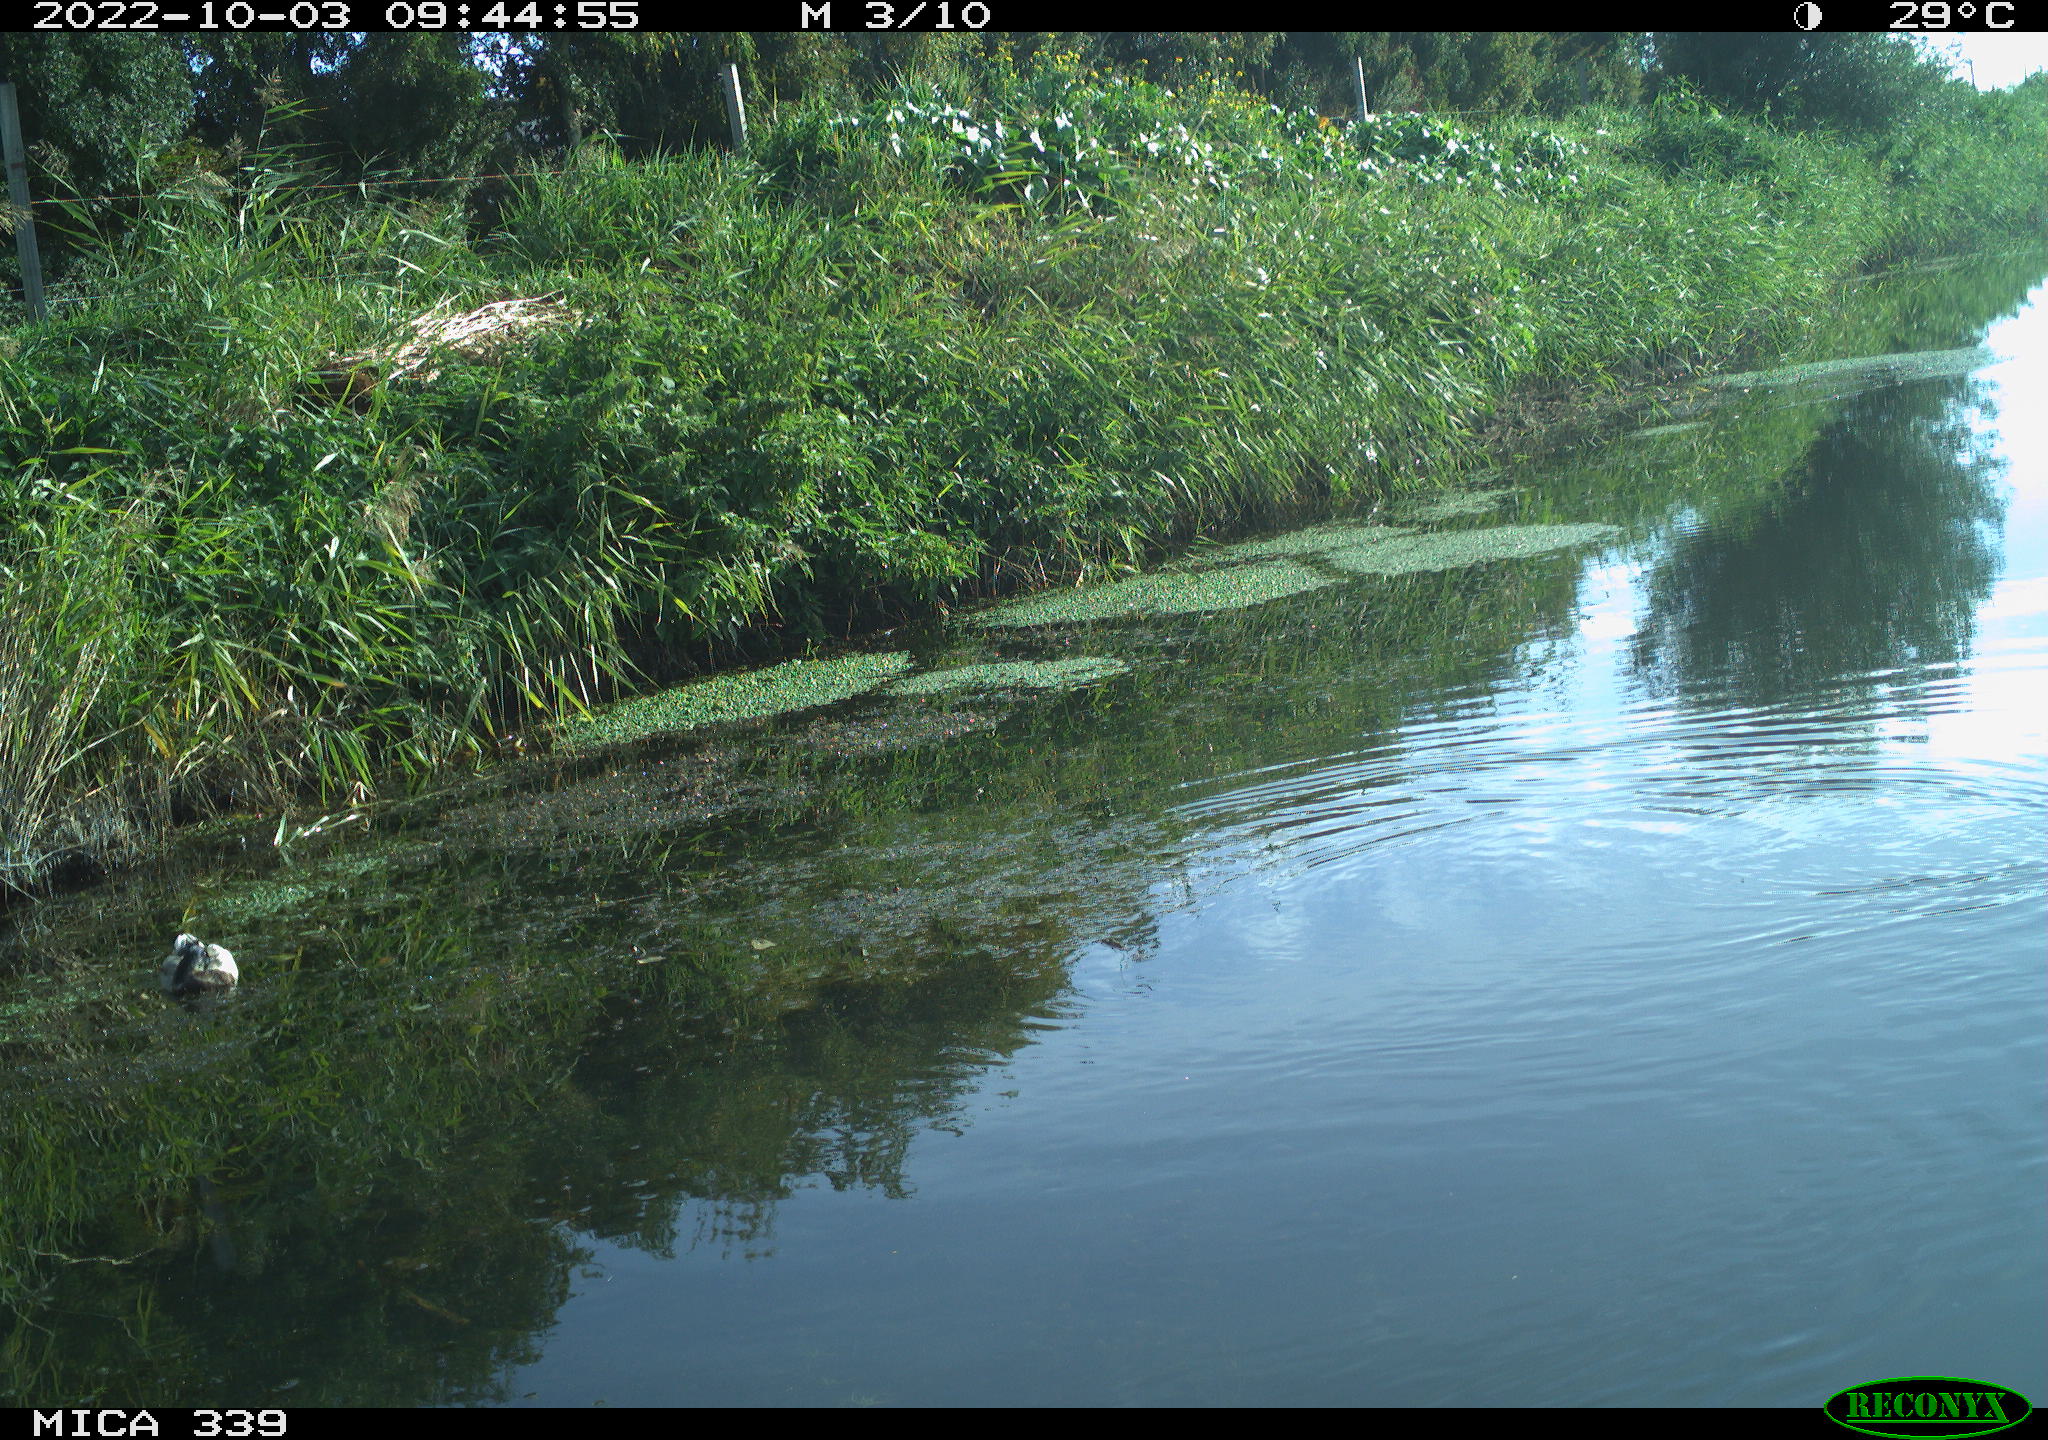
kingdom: Animalia
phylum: Chordata
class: Aves
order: Anseriformes
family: Anatidae
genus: Anas
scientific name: Anas platyrhynchos
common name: Mallard
